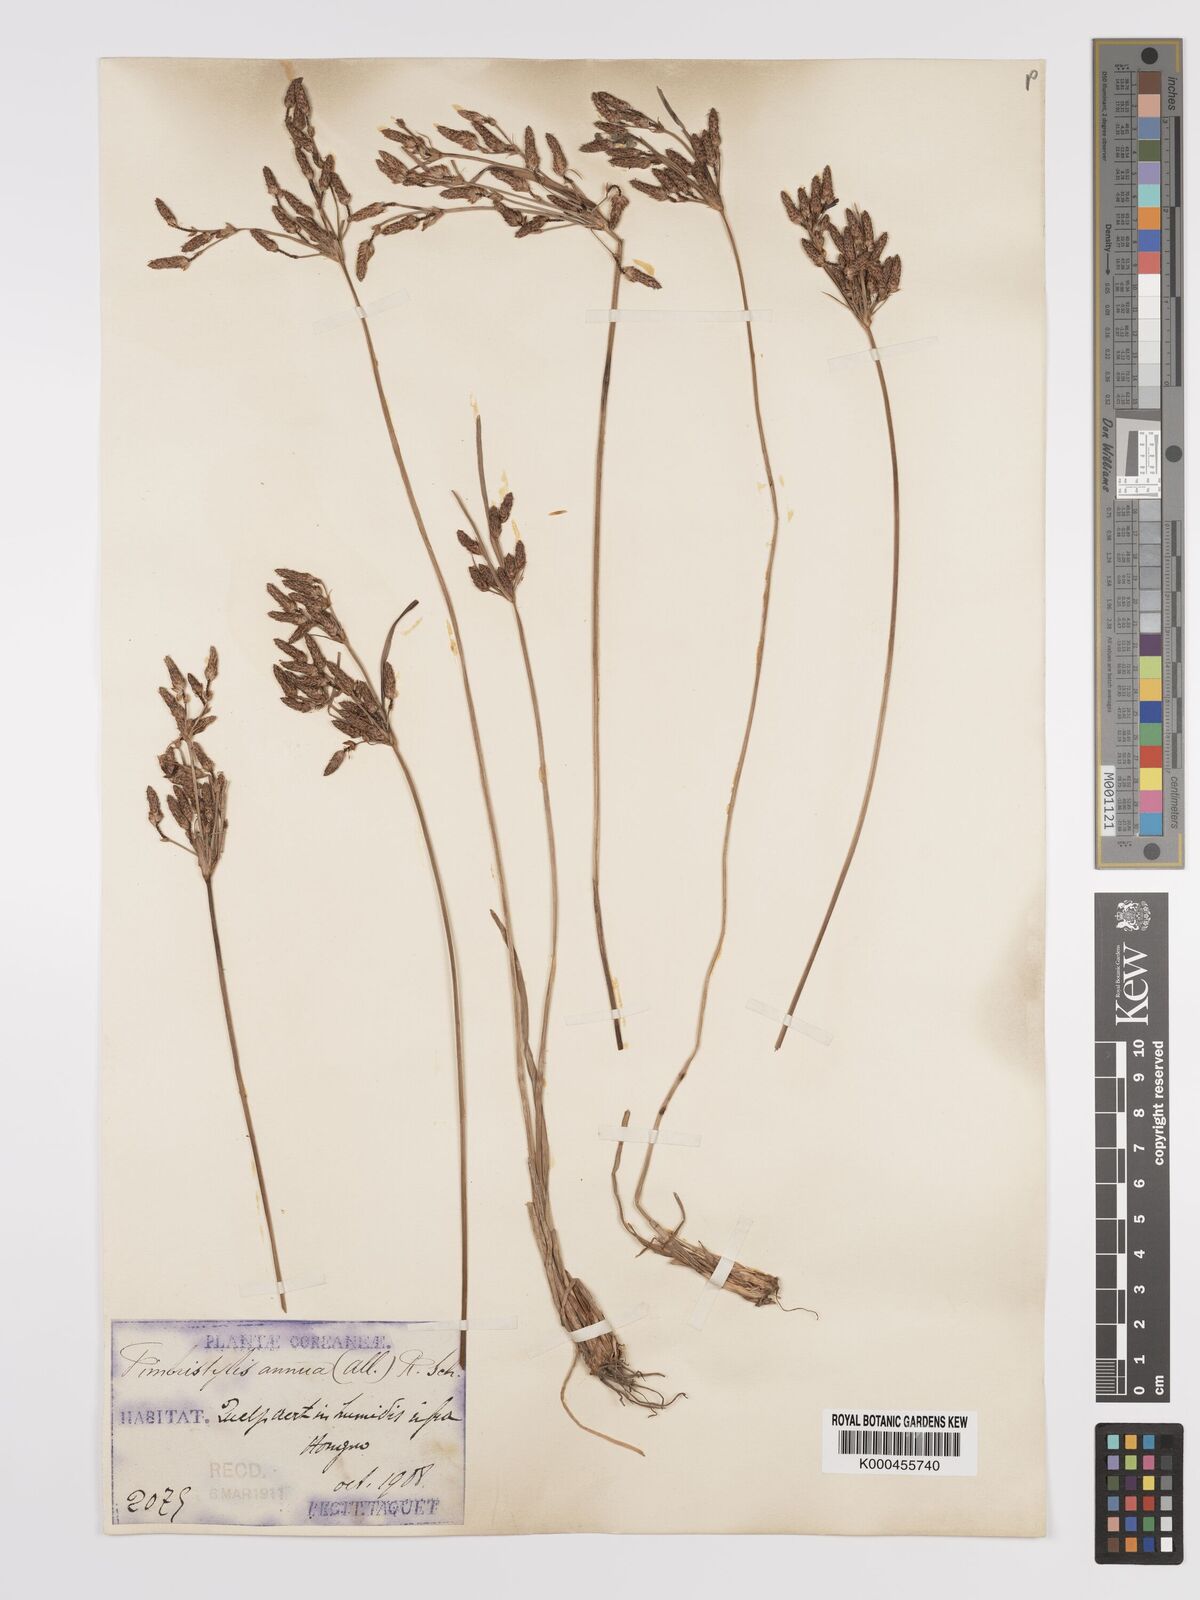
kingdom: Plantae
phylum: Tracheophyta
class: Liliopsida
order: Poales
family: Cyperaceae
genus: Fimbristylis
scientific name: Fimbristylis dichotoma
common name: Forked fimbry
